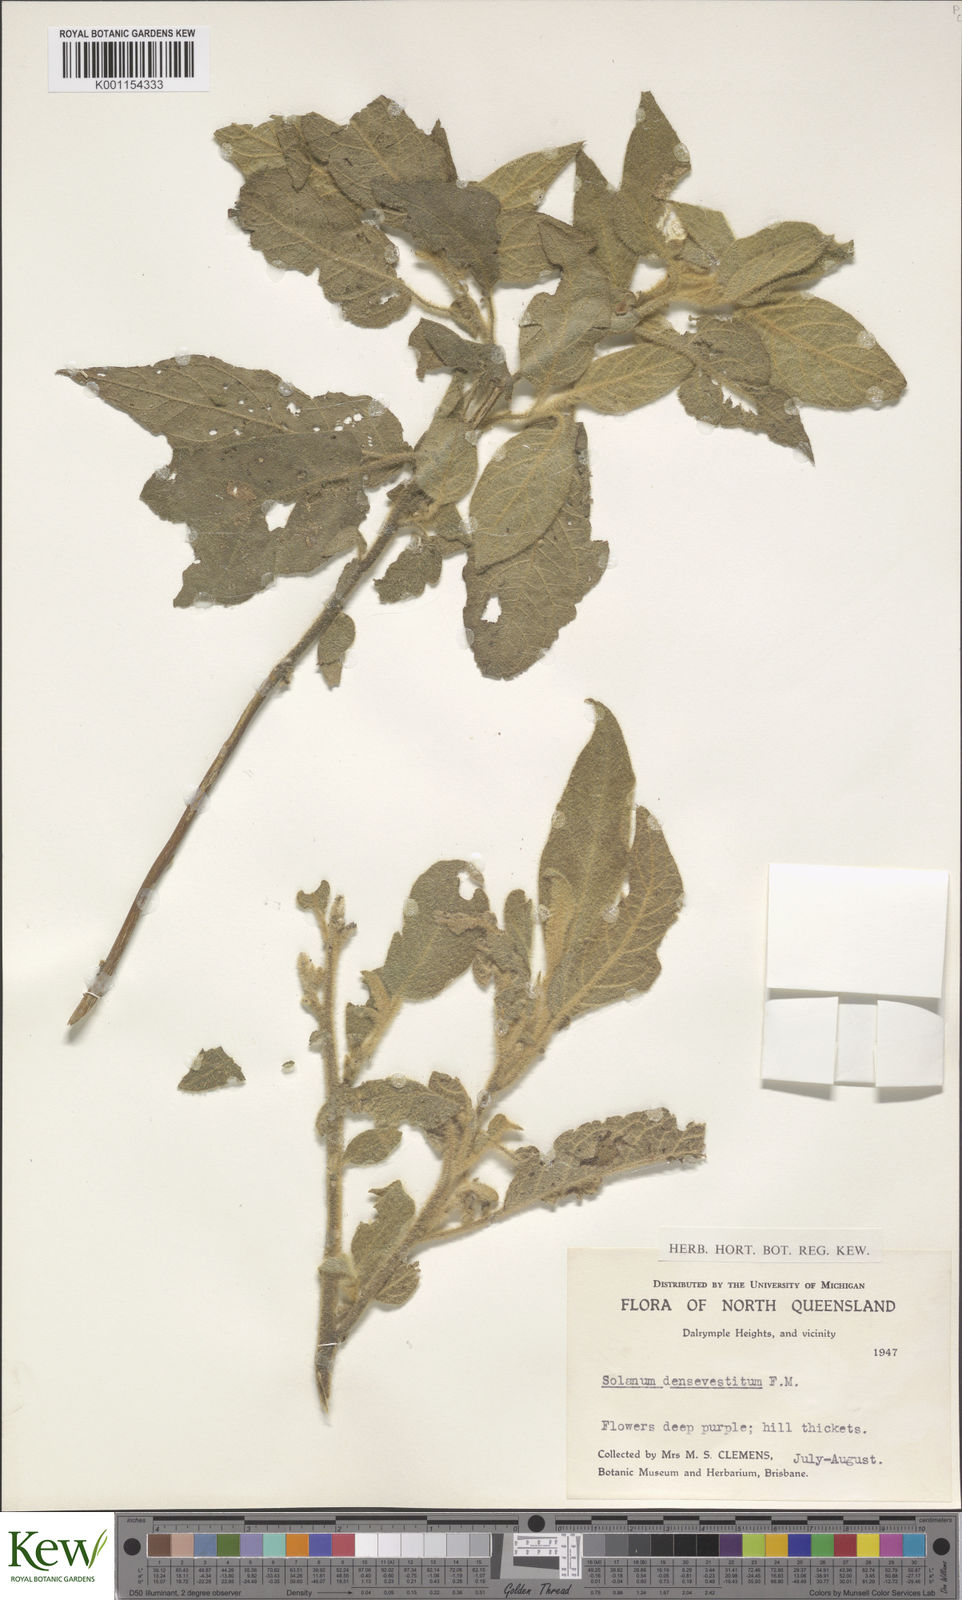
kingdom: Plantae
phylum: Tracheophyta
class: Magnoliopsida
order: Solanales
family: Solanaceae
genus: Solanum
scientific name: Solanum densevestitum
